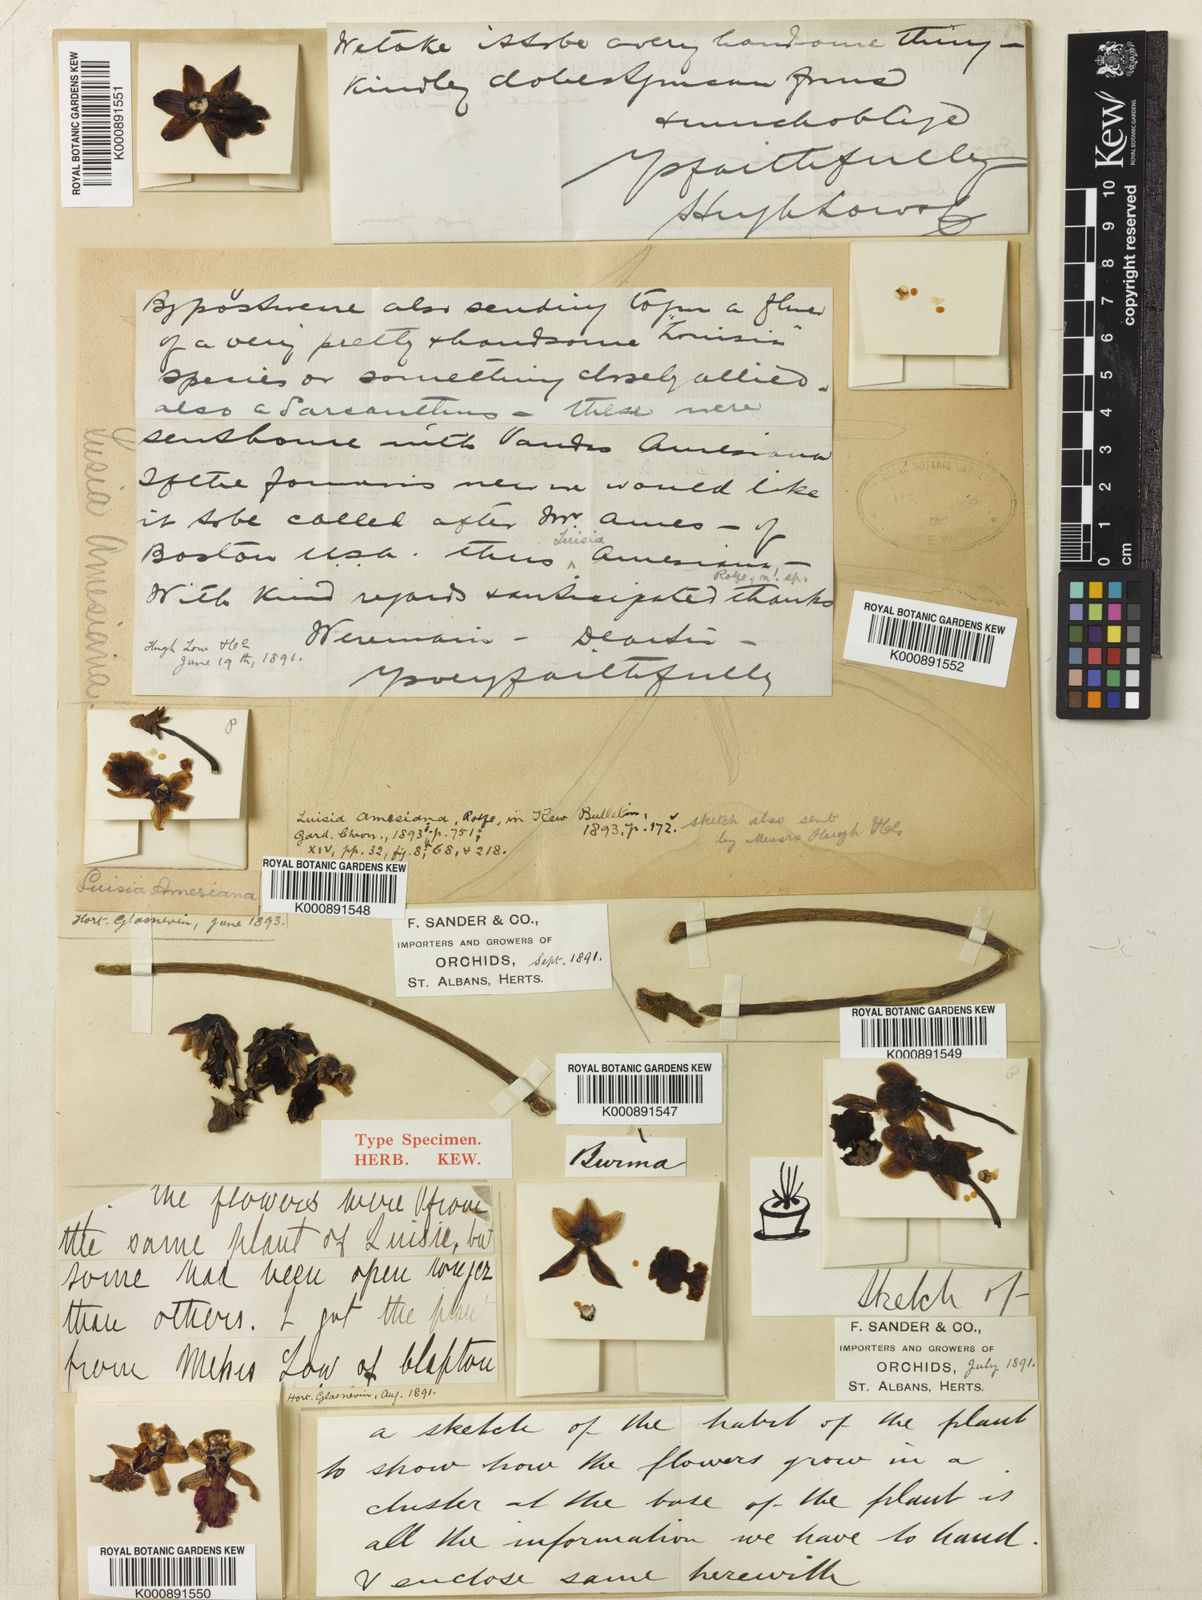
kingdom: Plantae
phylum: Tracheophyta
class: Liliopsida
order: Asparagales
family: Orchidaceae
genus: Luisia
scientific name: Luisia amesiana
